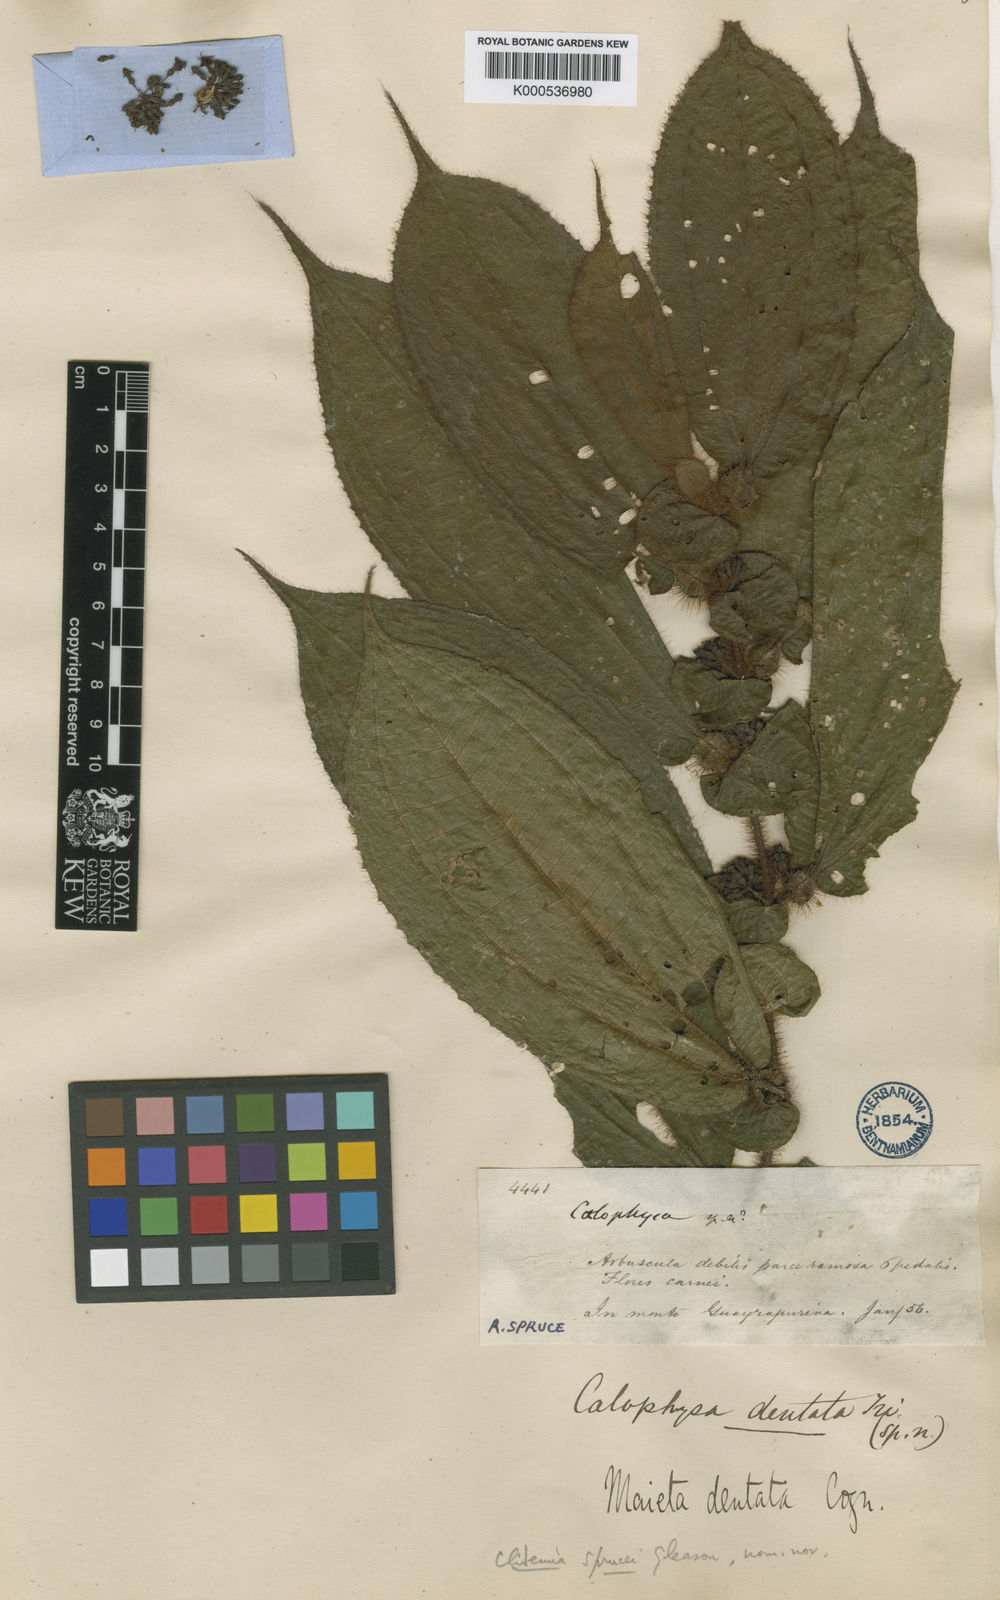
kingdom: Plantae
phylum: Tracheophyta
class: Magnoliopsida
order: Myrtales
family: Melastomataceae
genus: Miconia
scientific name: Miconia richardsprucei
